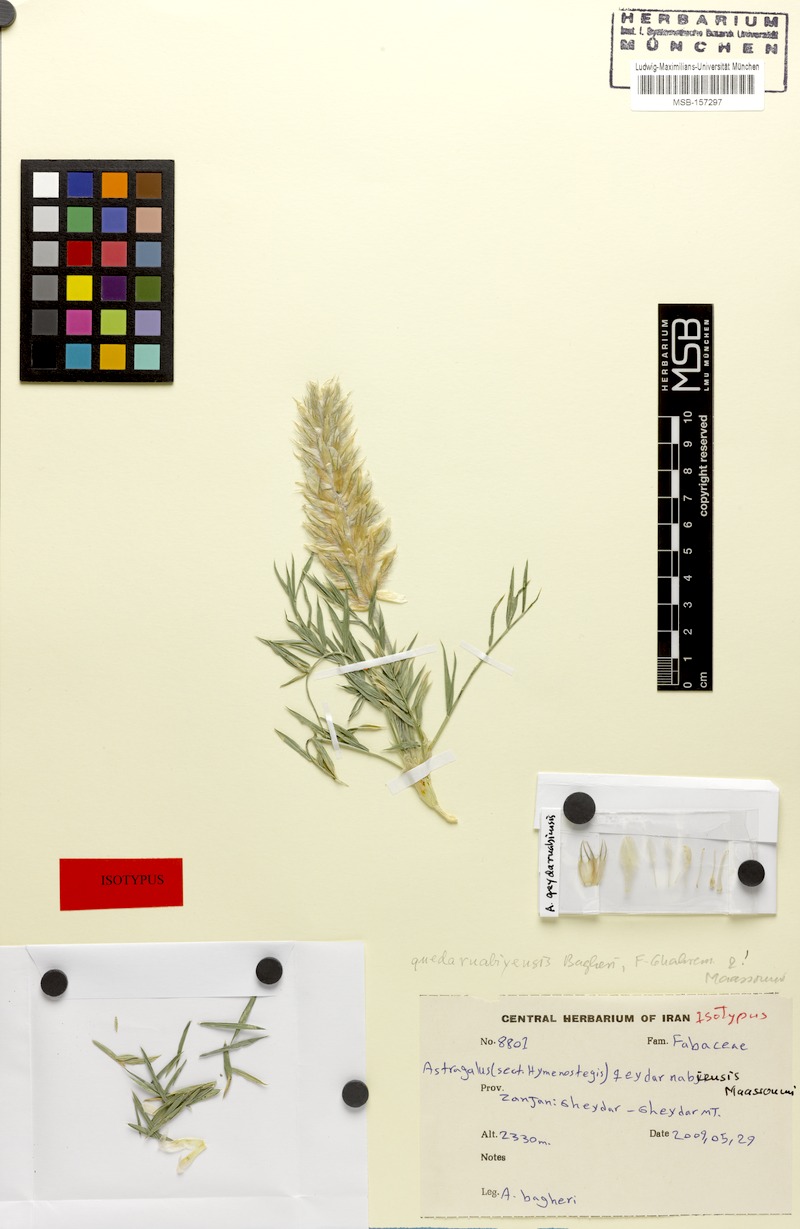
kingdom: Plantae
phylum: Tracheophyta
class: Magnoliopsida
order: Fabales
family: Fabaceae
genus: Astragalus
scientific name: Astragalus qeydarnabiensis
